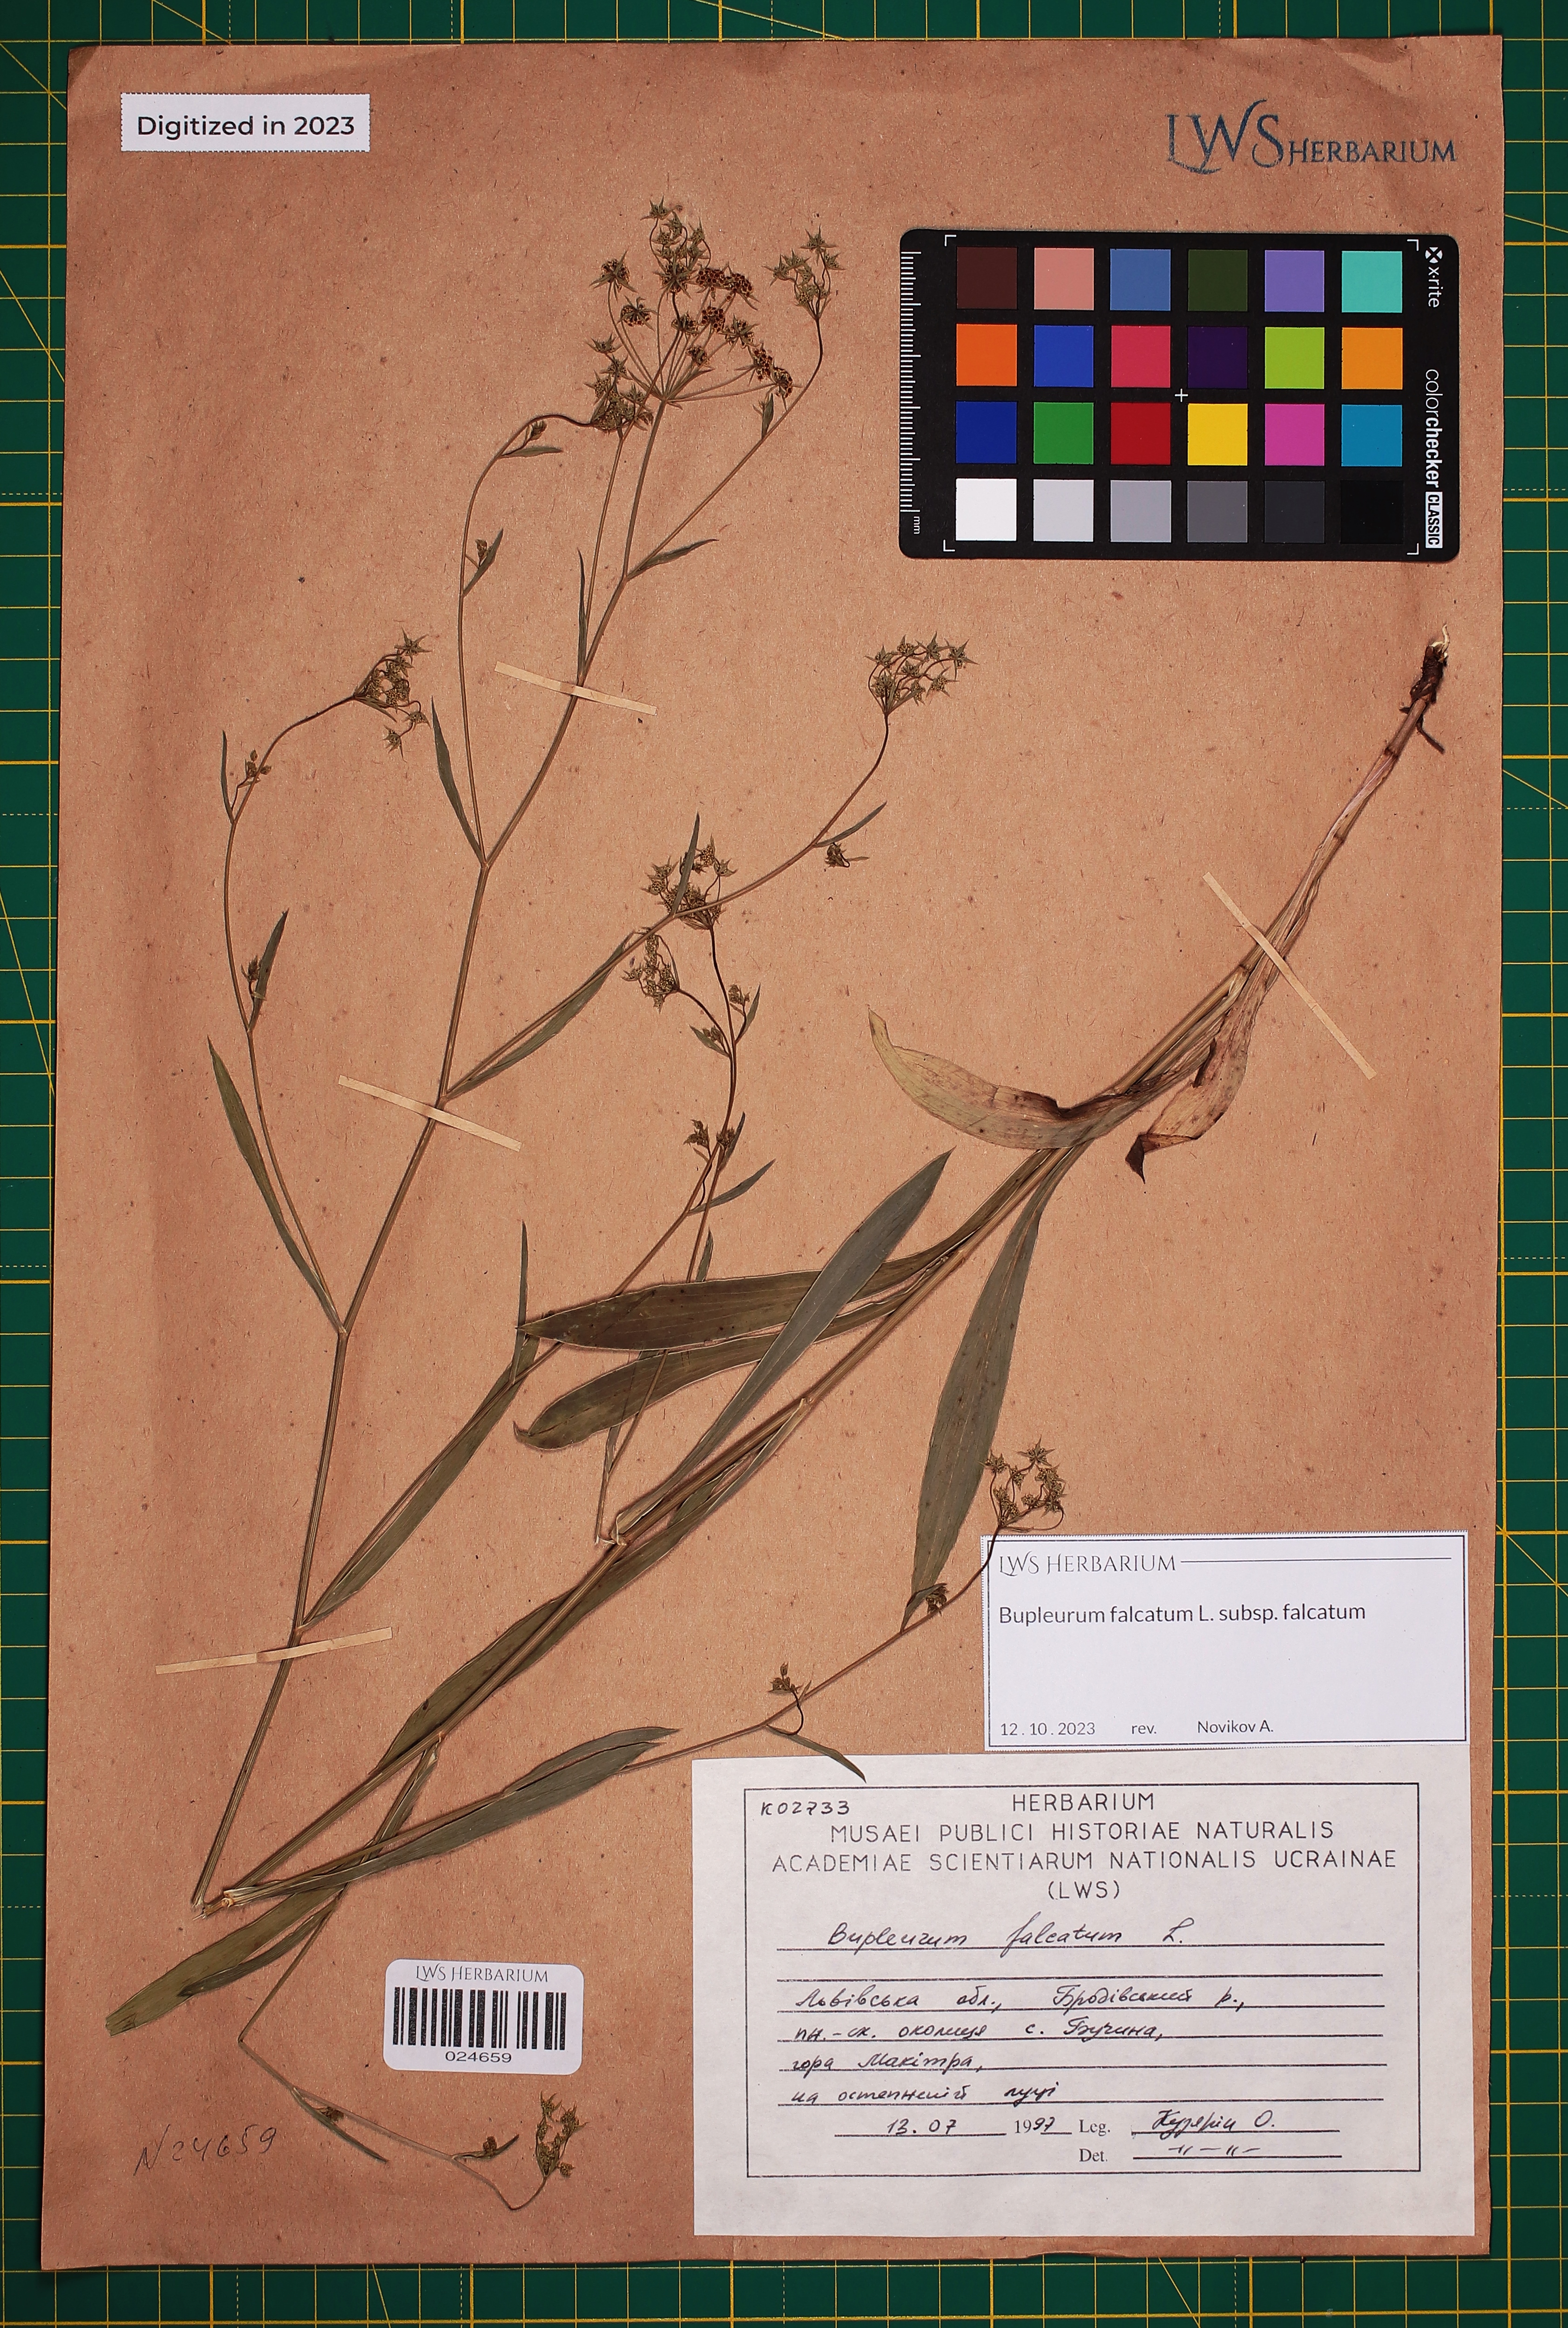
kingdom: Plantae
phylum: Tracheophyta
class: Magnoliopsida
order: Apiales
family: Apiaceae
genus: Bupleurum
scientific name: Bupleurum falcatum
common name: Sickle-leaved hare's-ear
